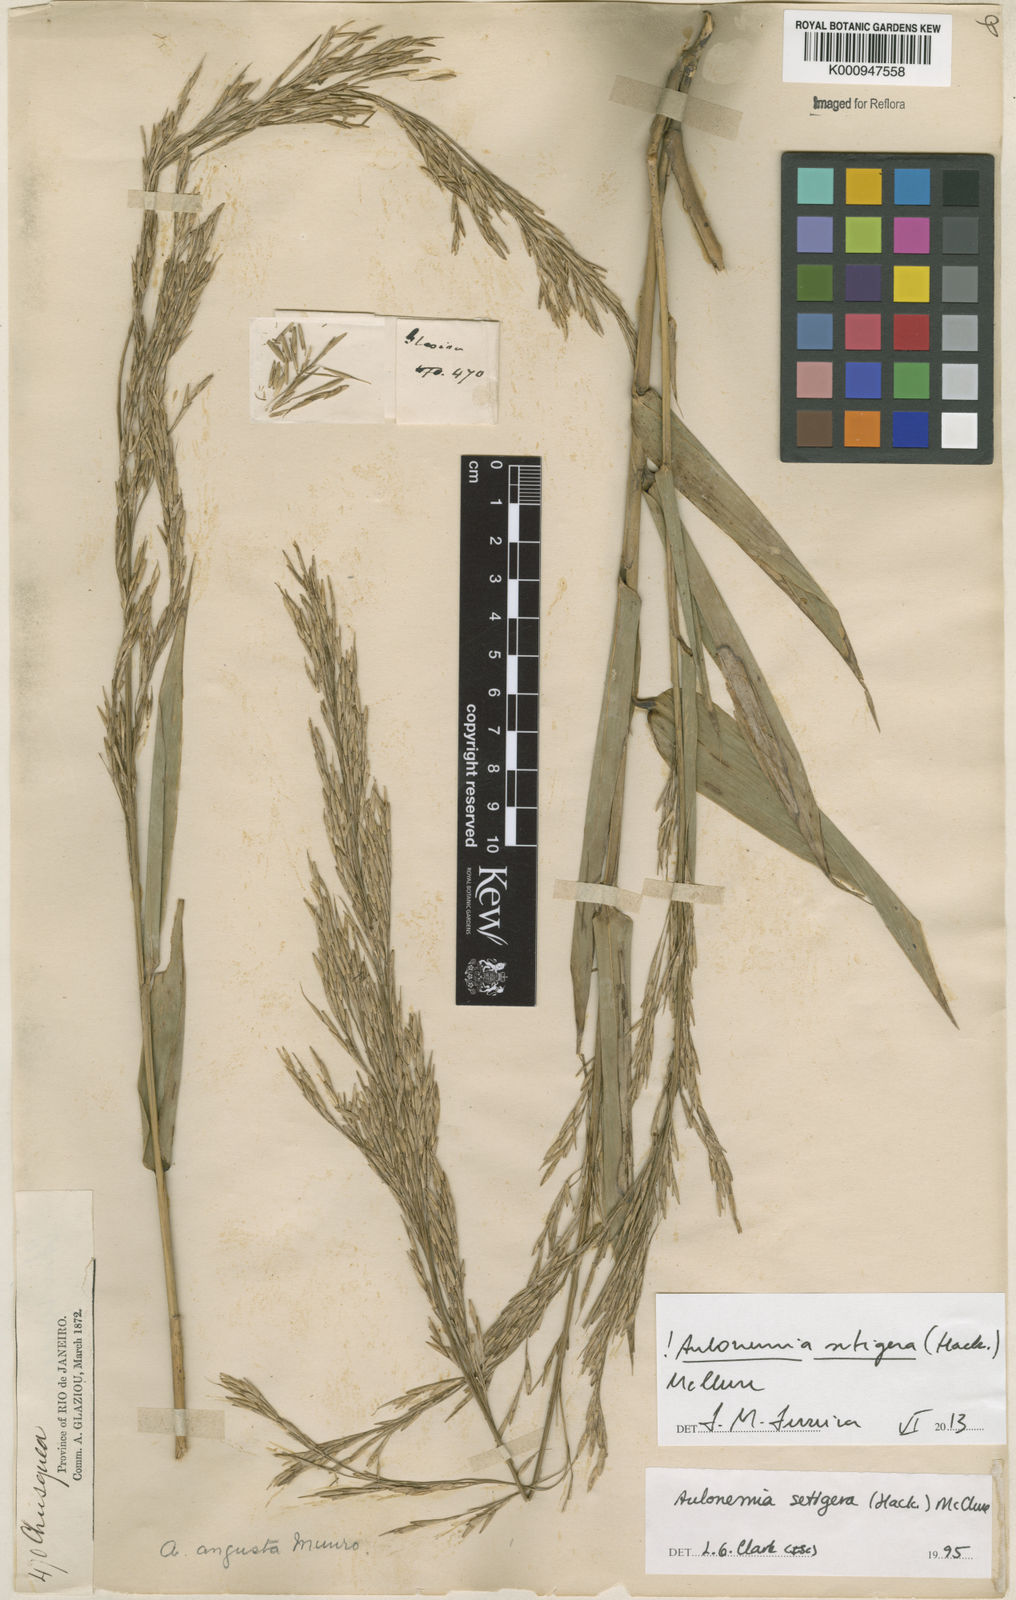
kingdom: Plantae
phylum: Tracheophyta
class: Liliopsida
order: Poales
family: Poaceae
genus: Aulonemia
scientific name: Aulonemia setigera
